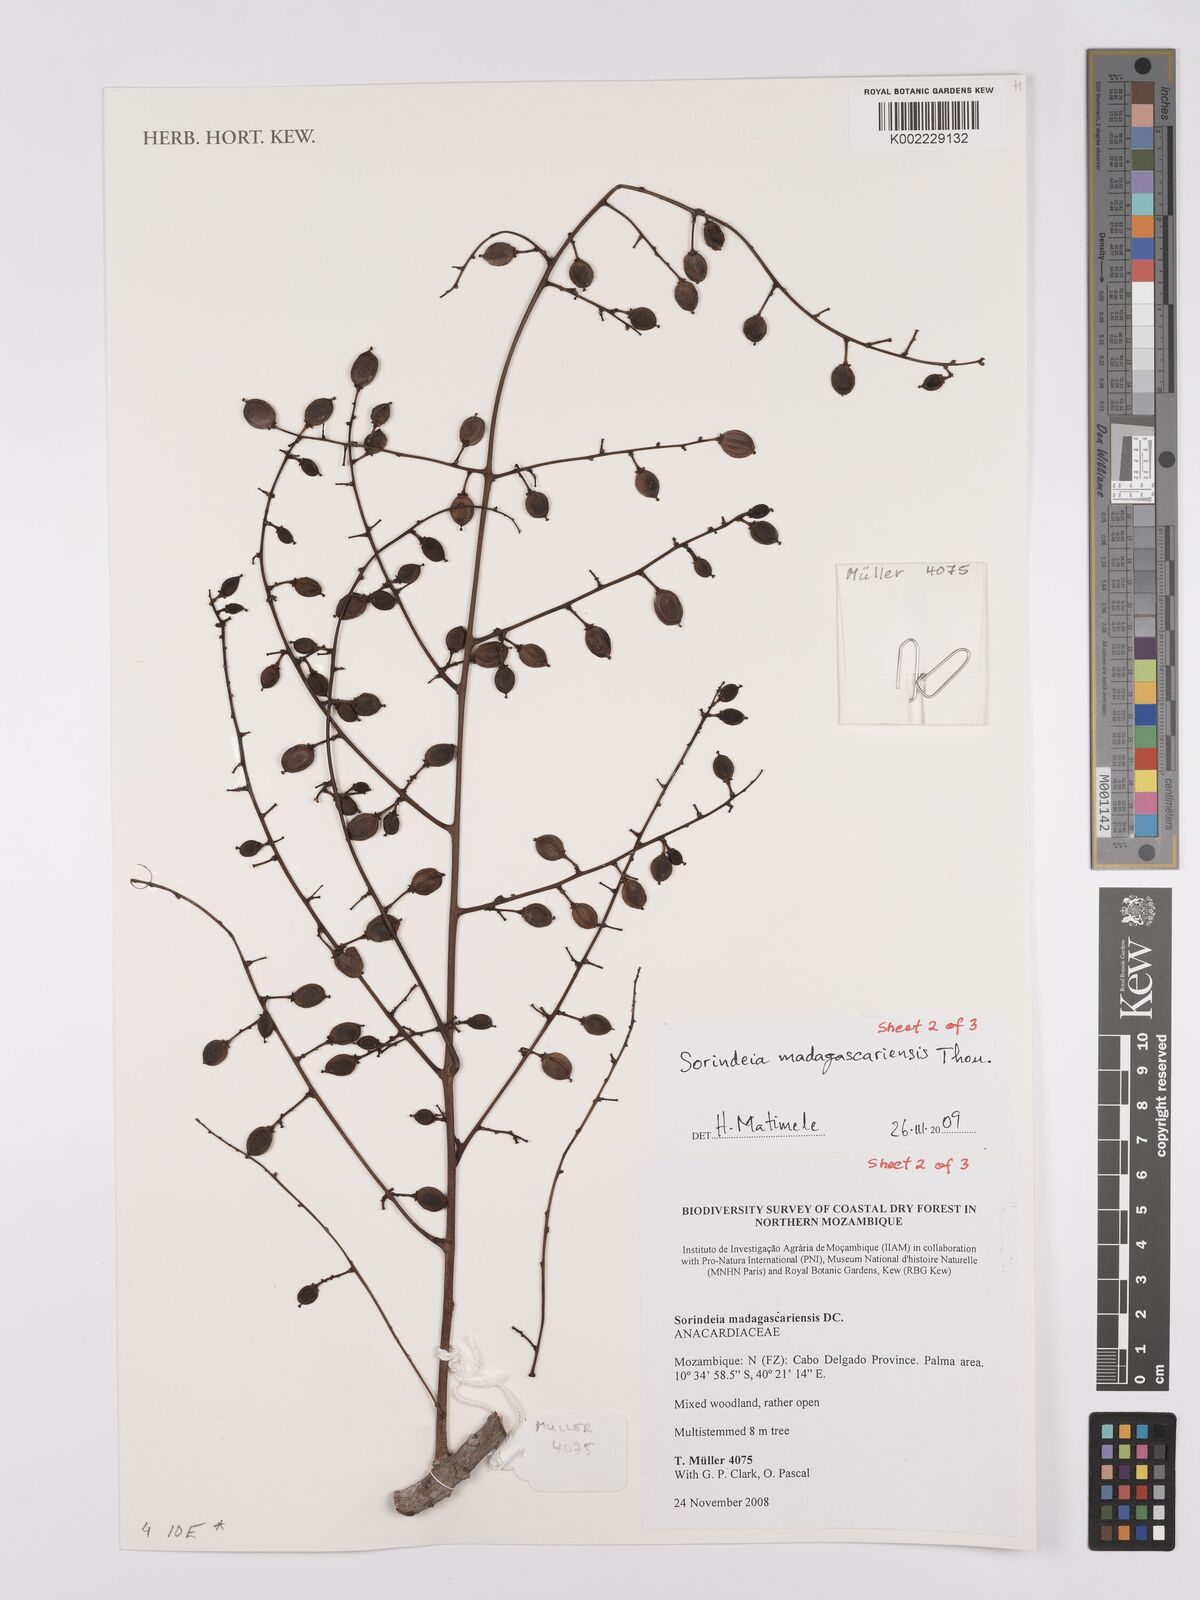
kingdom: Plantae
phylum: Tracheophyta
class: Magnoliopsida
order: Sapindales
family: Anacardiaceae
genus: Sorindeia
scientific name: Sorindeia madagascariensis
